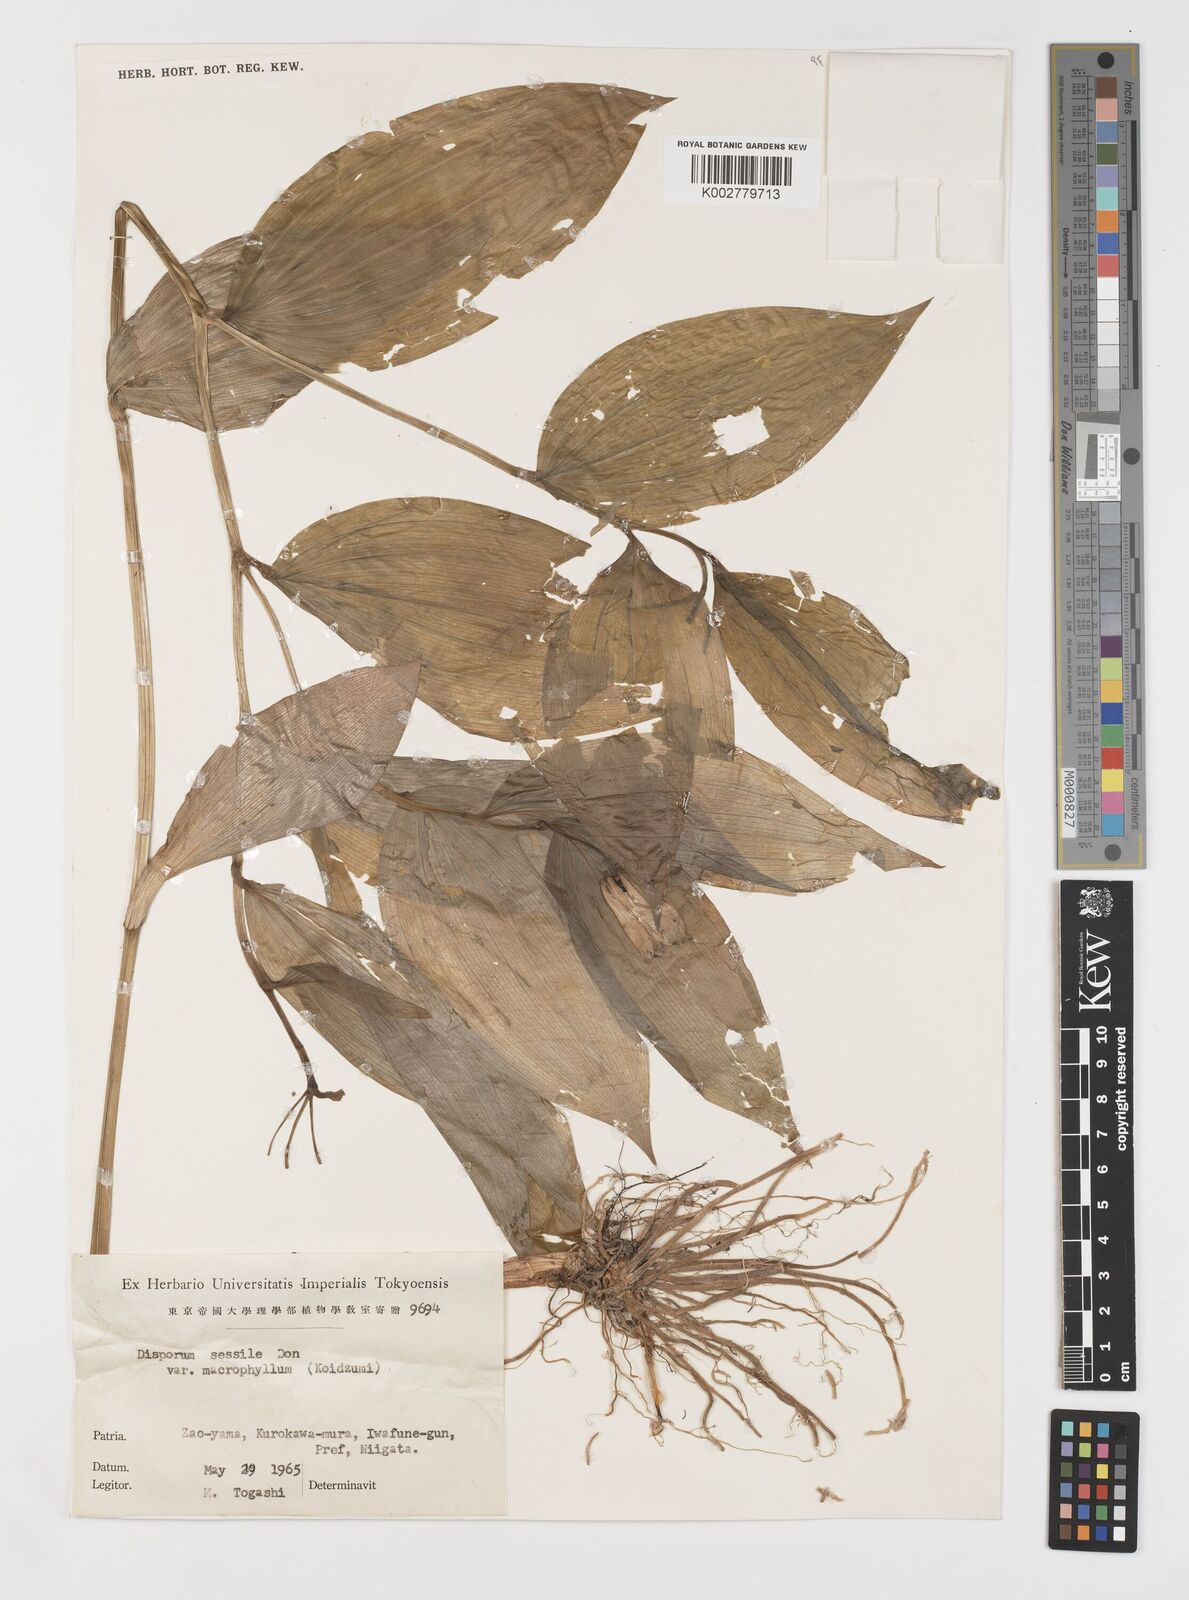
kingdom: Plantae
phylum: Tracheophyta
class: Liliopsida
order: Liliales
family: Colchicaceae
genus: Disporum
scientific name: Disporum sessile
